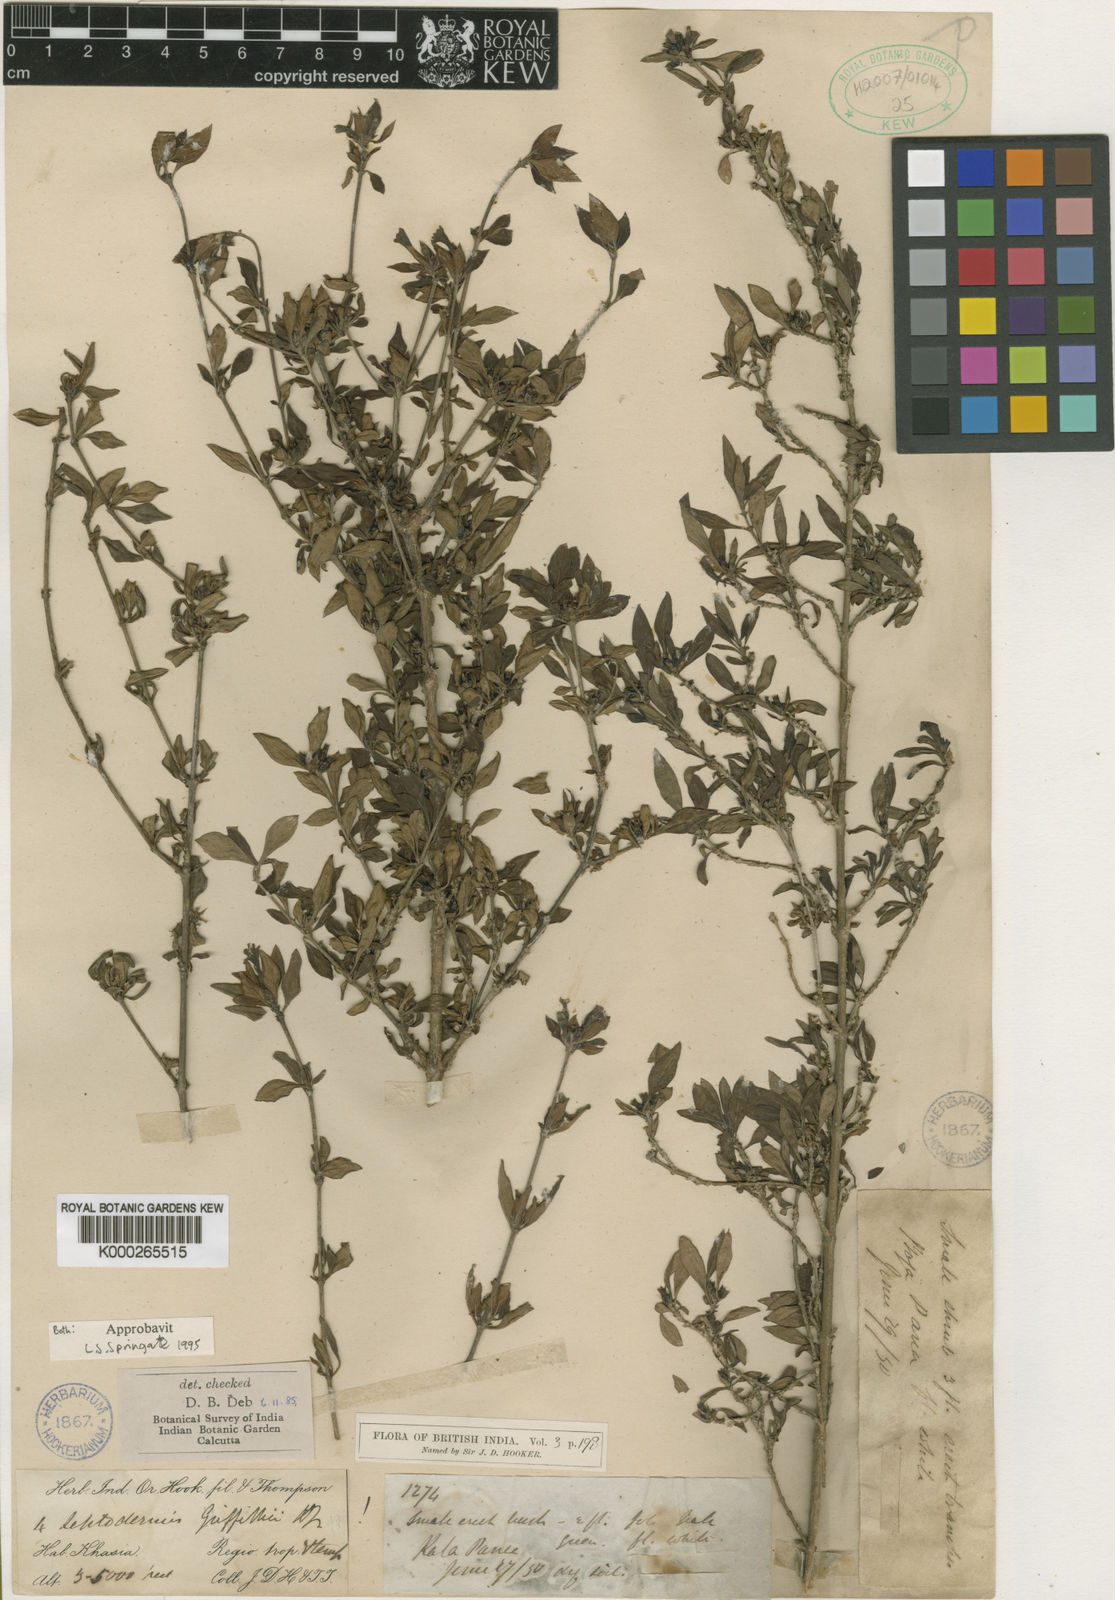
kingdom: Plantae
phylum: Tracheophyta
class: Magnoliopsida
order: Gentianales
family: Rubiaceae
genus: Leptodermis
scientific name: Leptodermis griffithii
